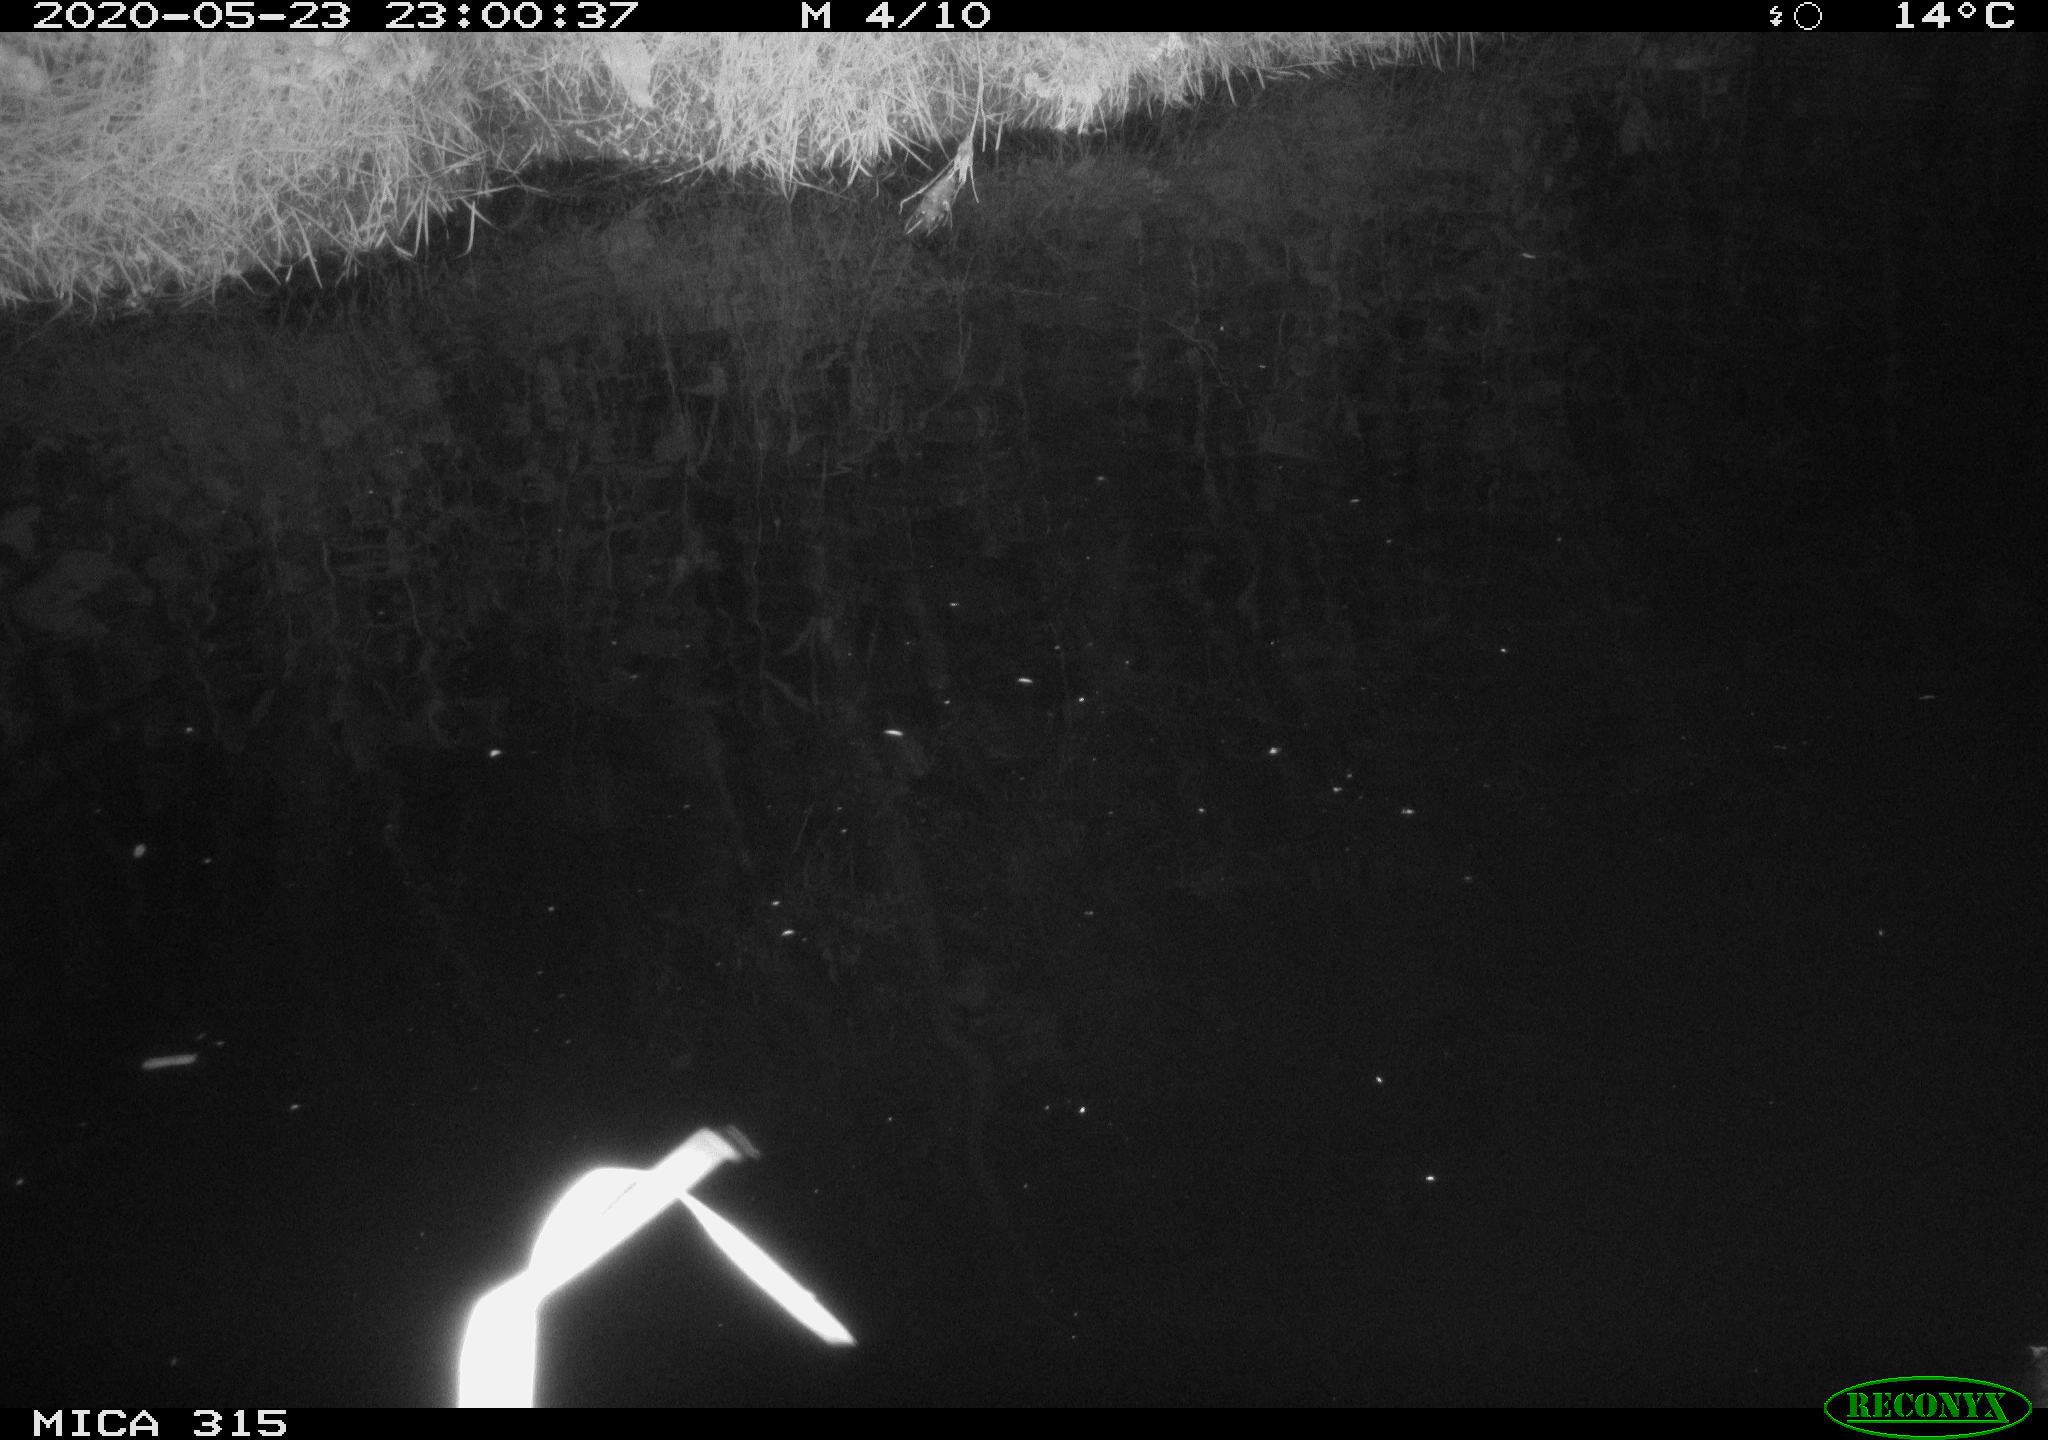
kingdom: Animalia
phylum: Chordata
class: Aves
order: Anseriformes
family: Anatidae
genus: Anas
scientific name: Anas platyrhynchos
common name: Mallard
